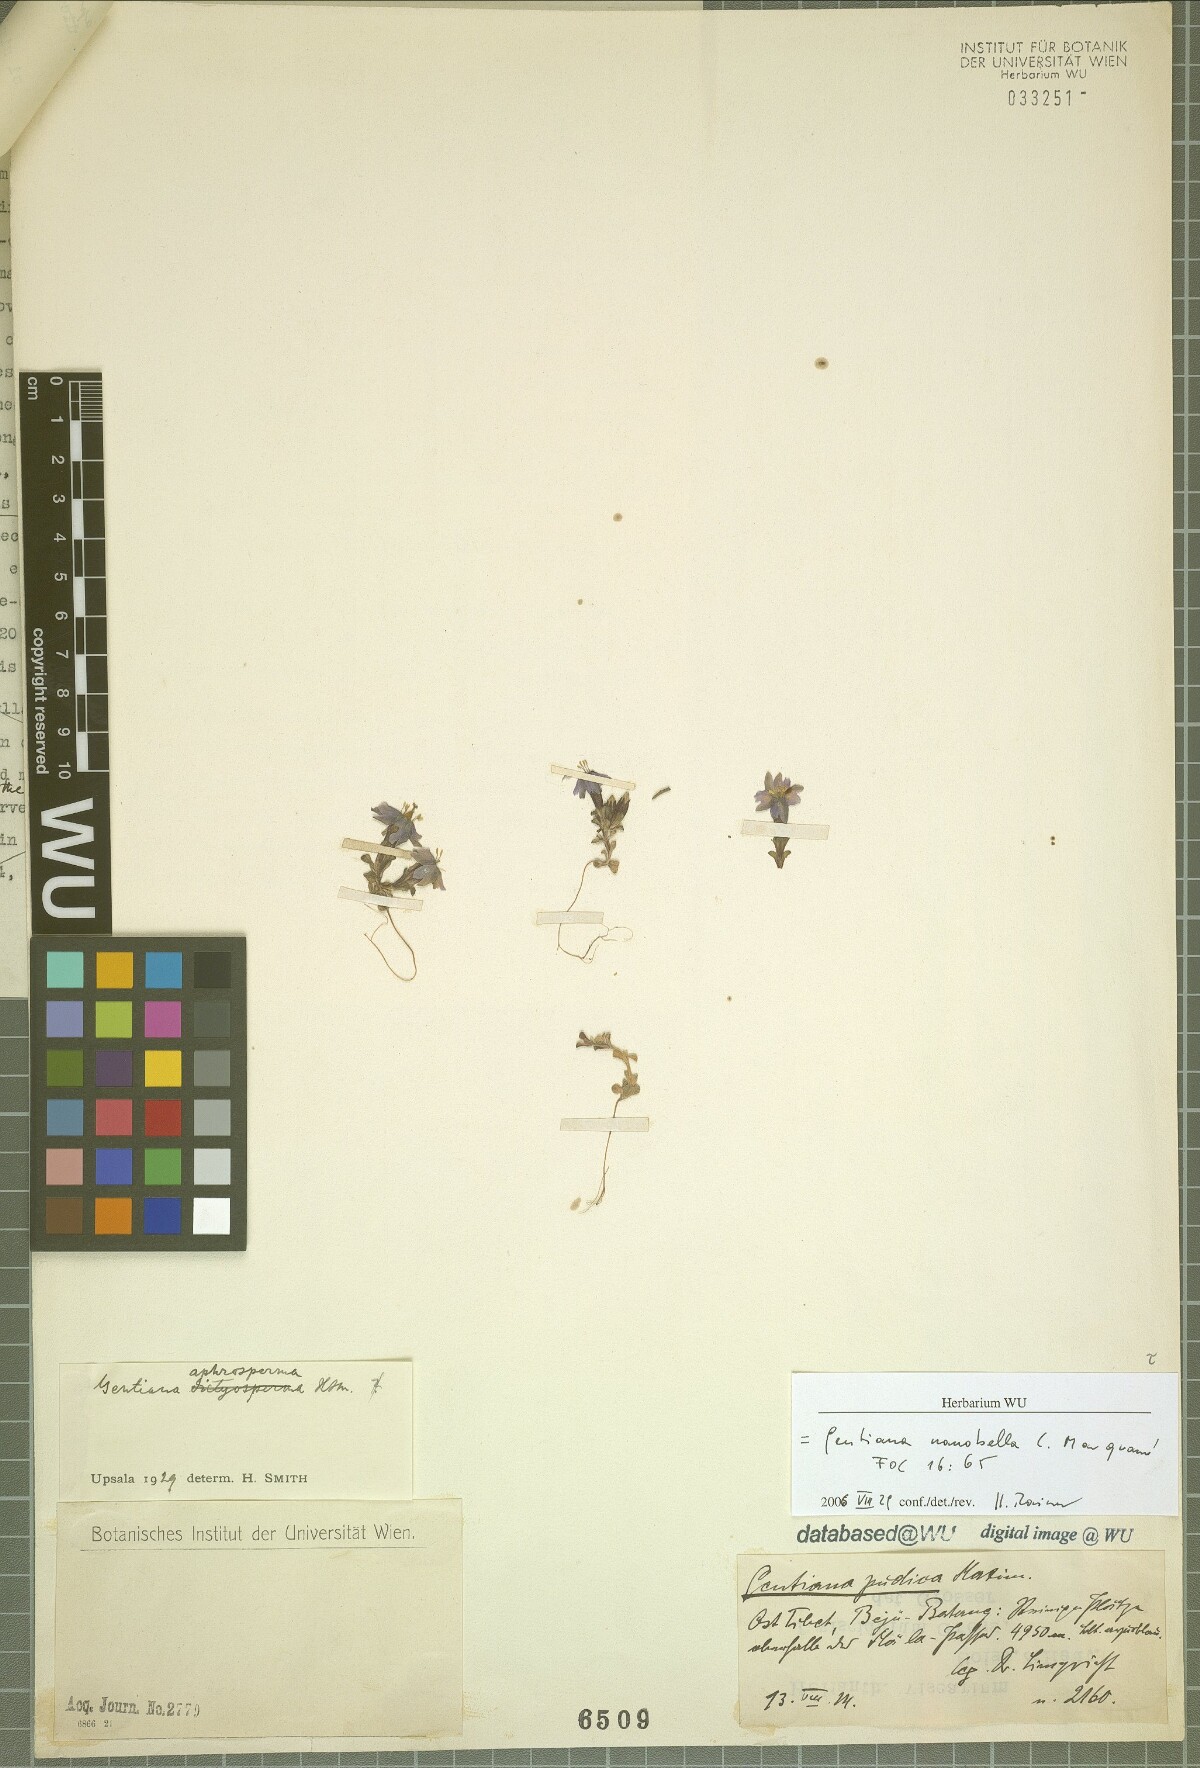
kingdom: Plantae
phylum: Tracheophyta
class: Magnoliopsida
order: Gentianales
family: Gentianaceae
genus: Gentiana
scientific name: Gentiana nanobella
